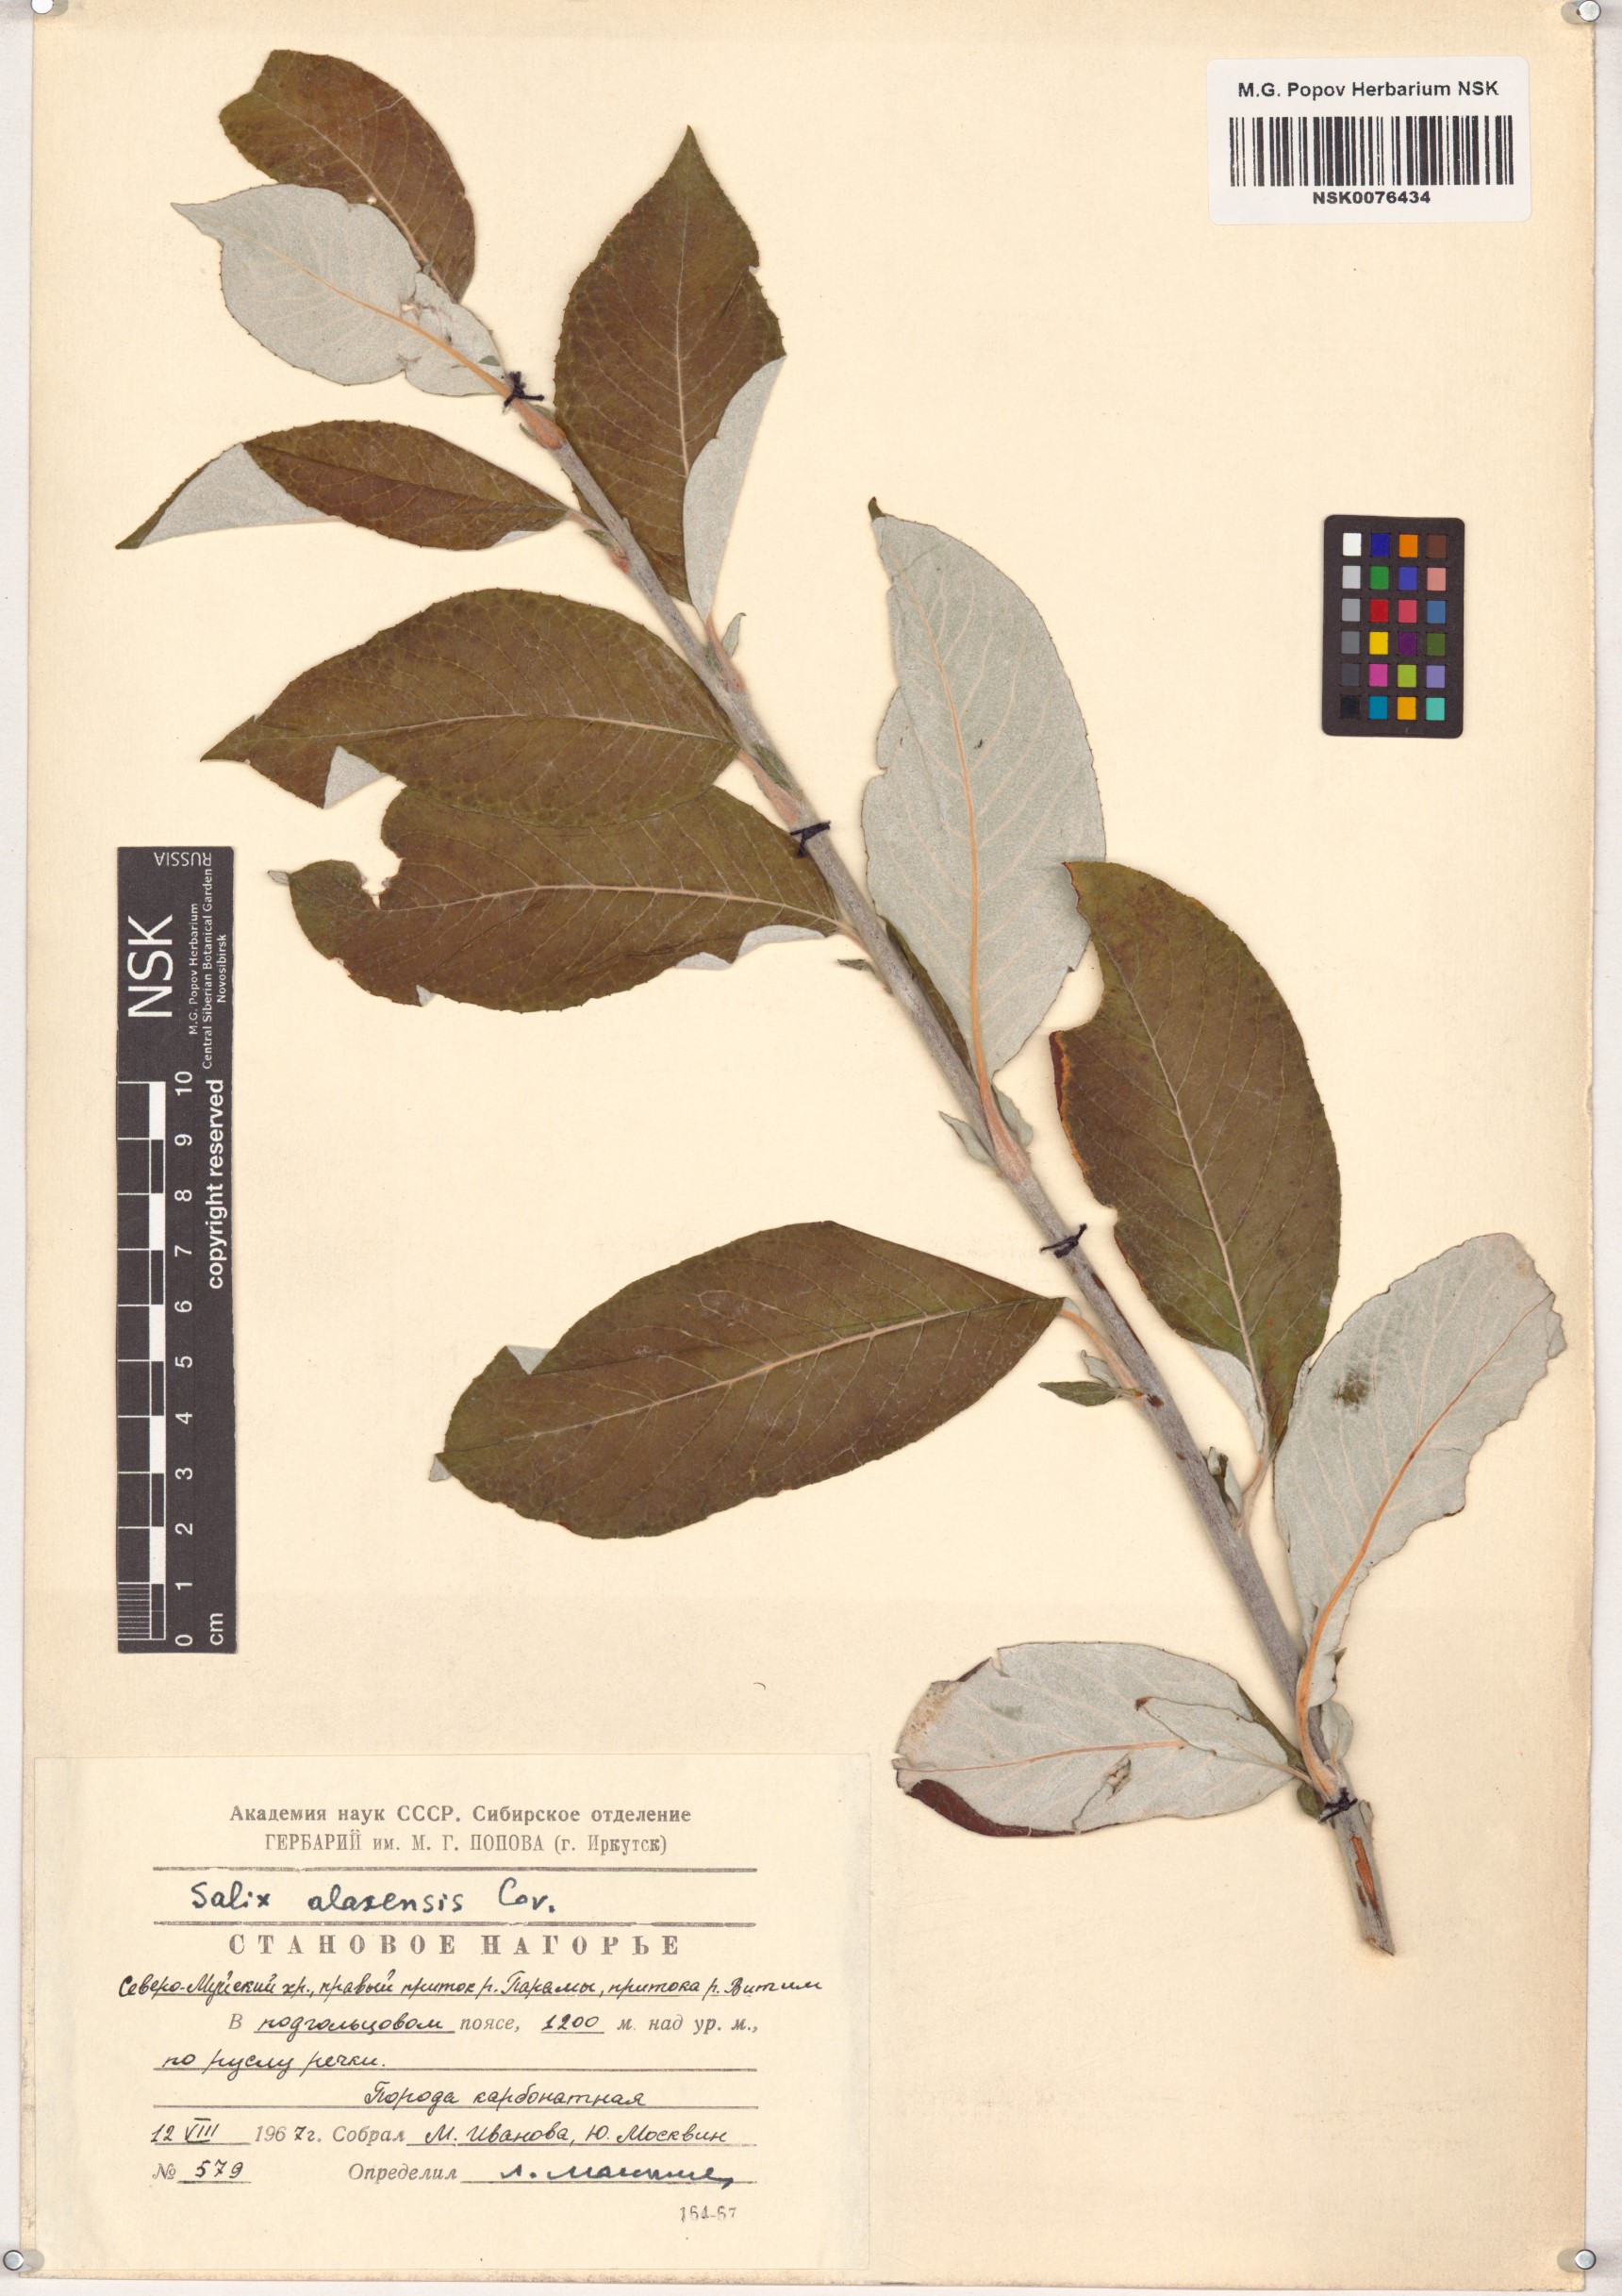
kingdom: Plantae
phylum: Tracheophyta
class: Magnoliopsida
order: Malpighiales
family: Salicaceae
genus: Salix
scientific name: Salix alaxensis
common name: Feltleaf willow
